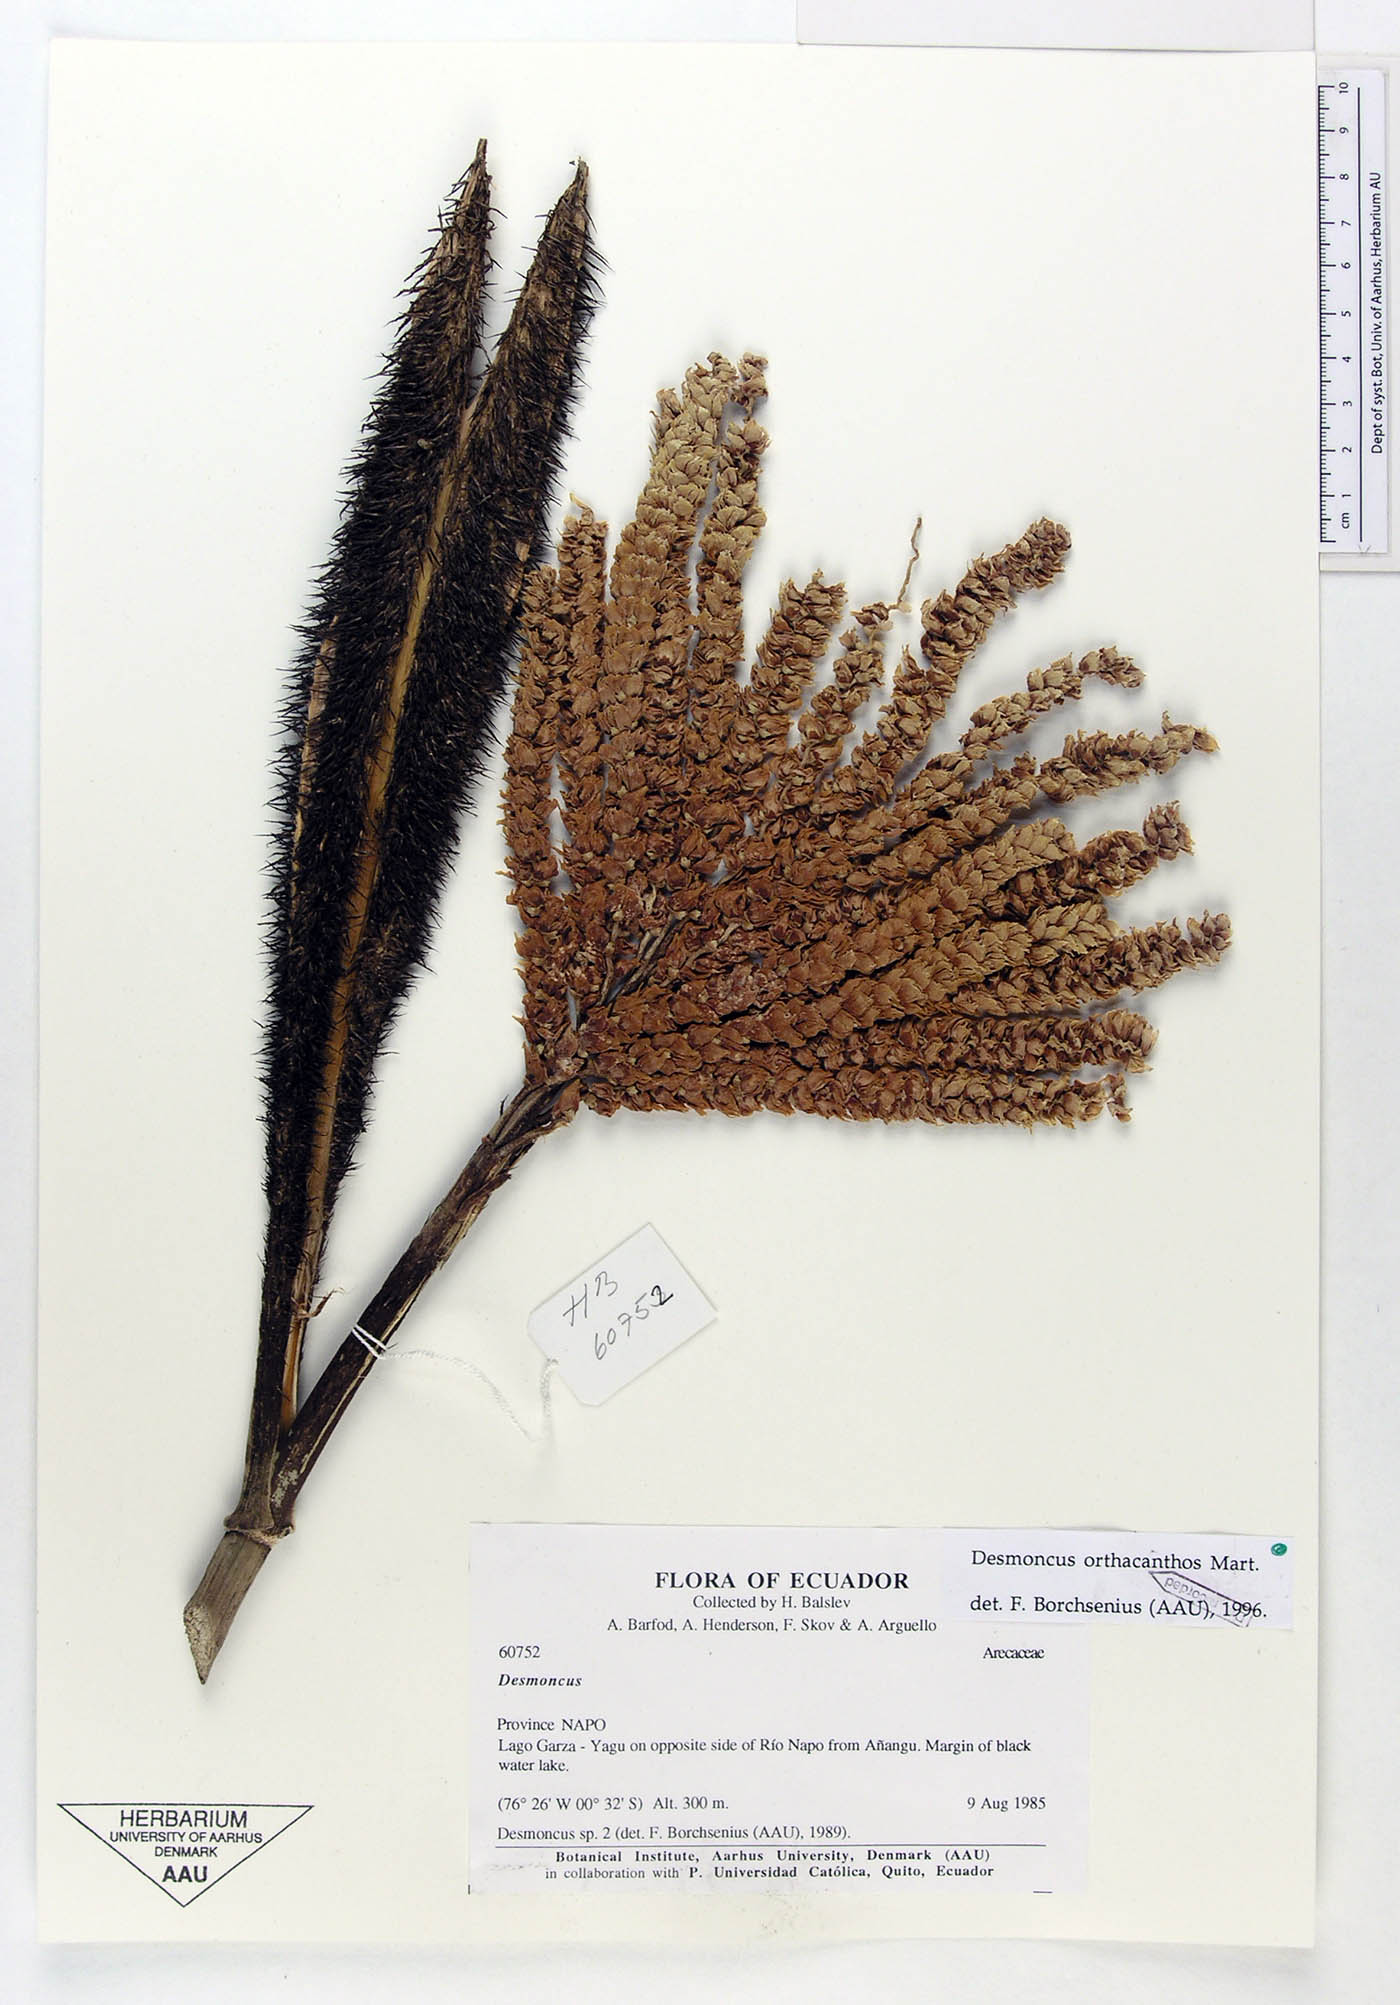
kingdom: Plantae
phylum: Tracheophyta
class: Liliopsida
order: Arecales
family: Arecaceae
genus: Desmoncus
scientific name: Desmoncus orthacanthos
